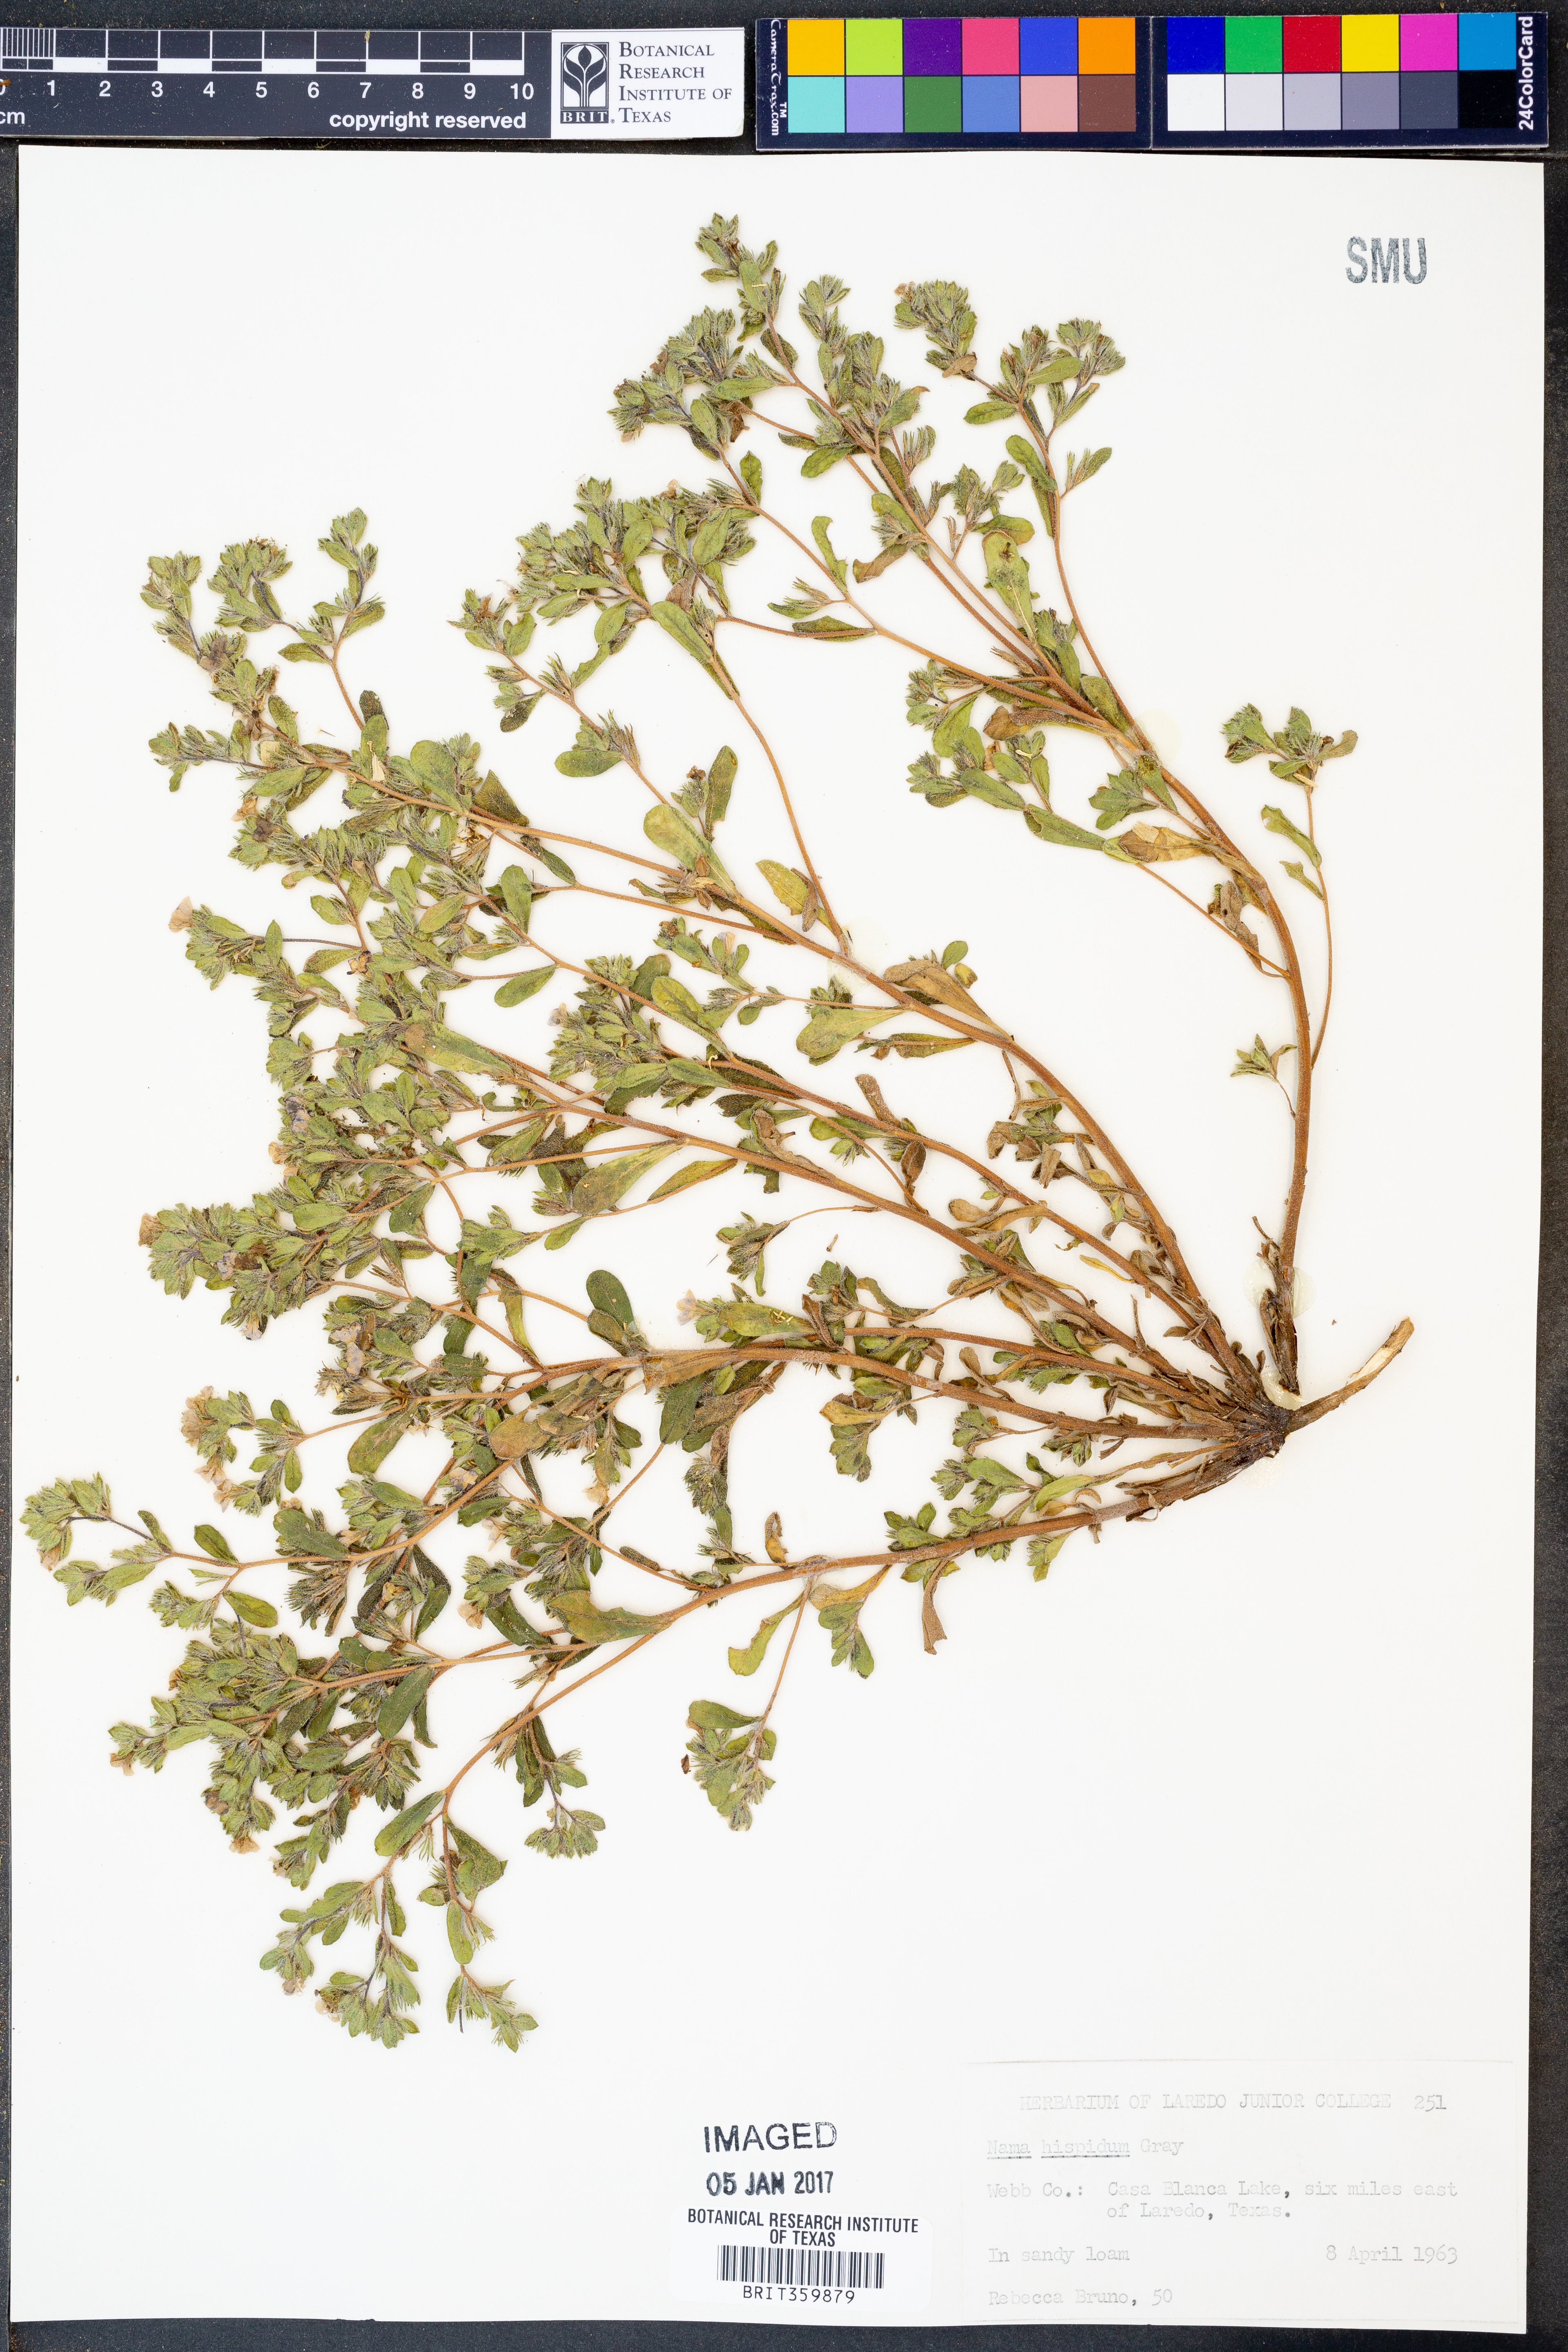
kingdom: Plantae
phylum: Tracheophyta
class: Magnoliopsida
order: Boraginales
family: Namaceae
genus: Nama
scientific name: Nama hispida
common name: Bristly nama
